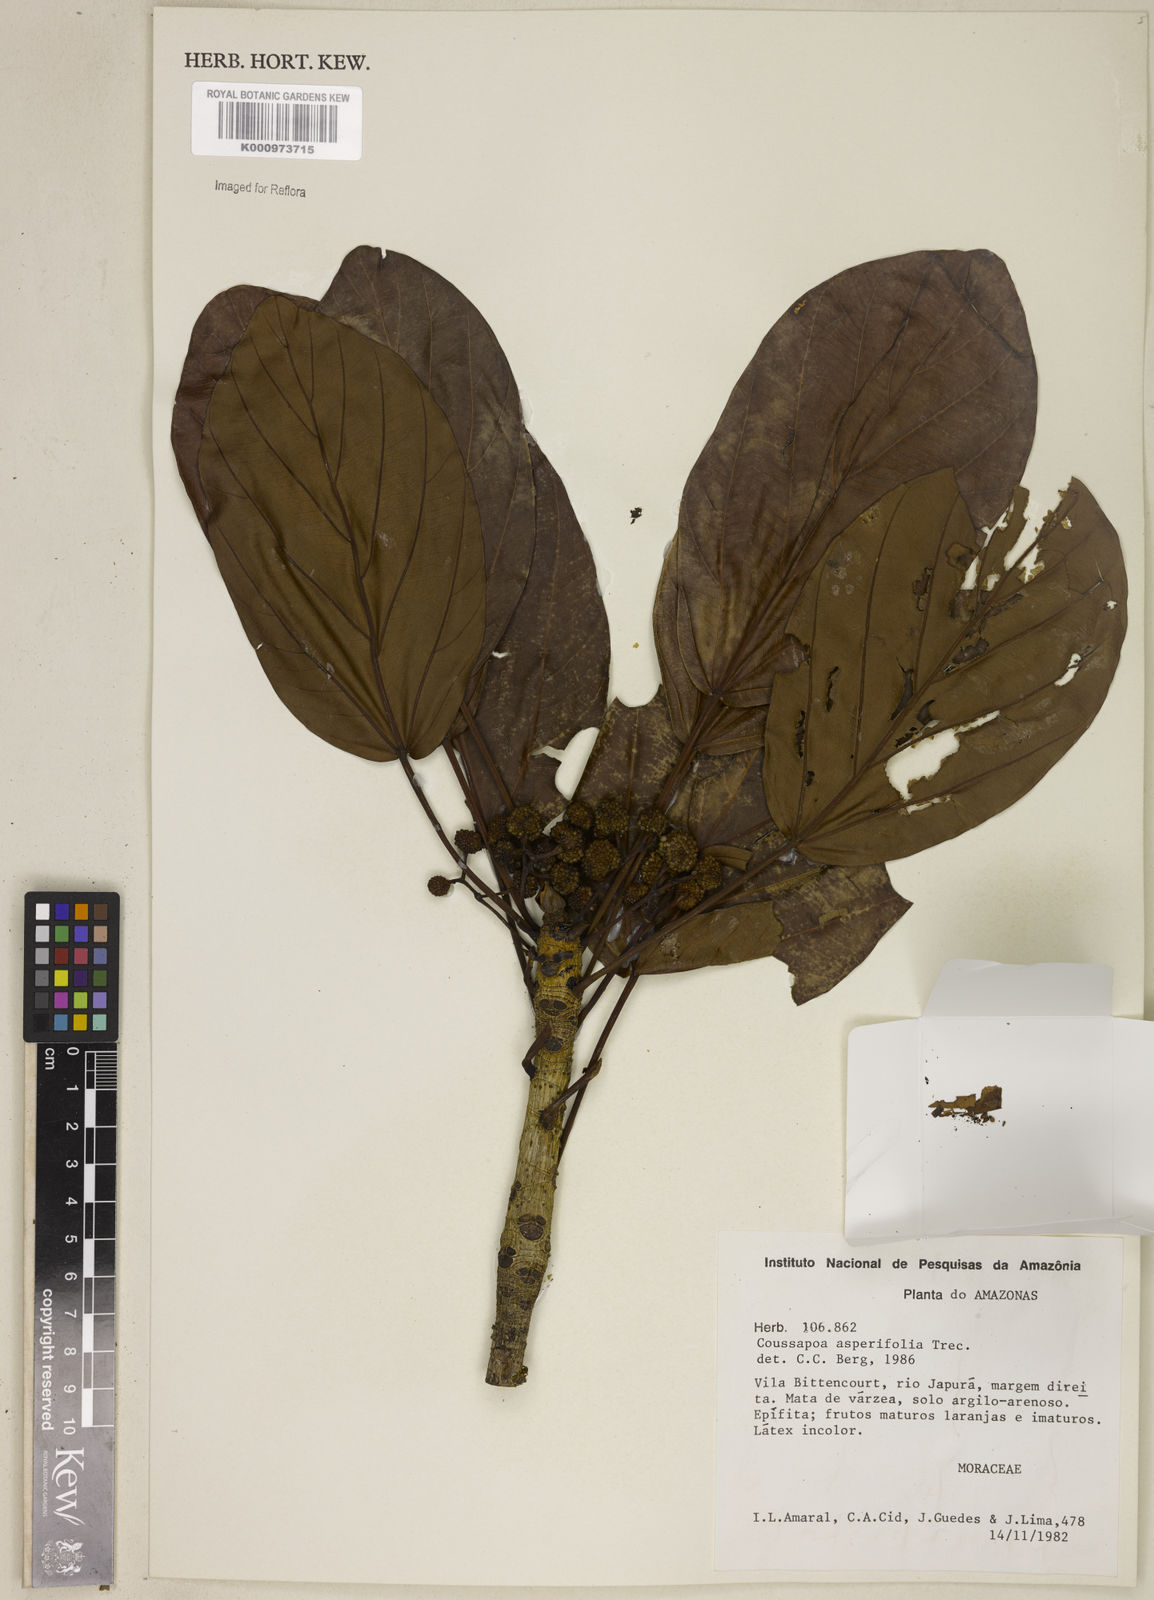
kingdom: Plantae
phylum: Tracheophyta
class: Magnoliopsida
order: Rosales
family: Urticaceae
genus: Coussapoa
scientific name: Coussapoa
